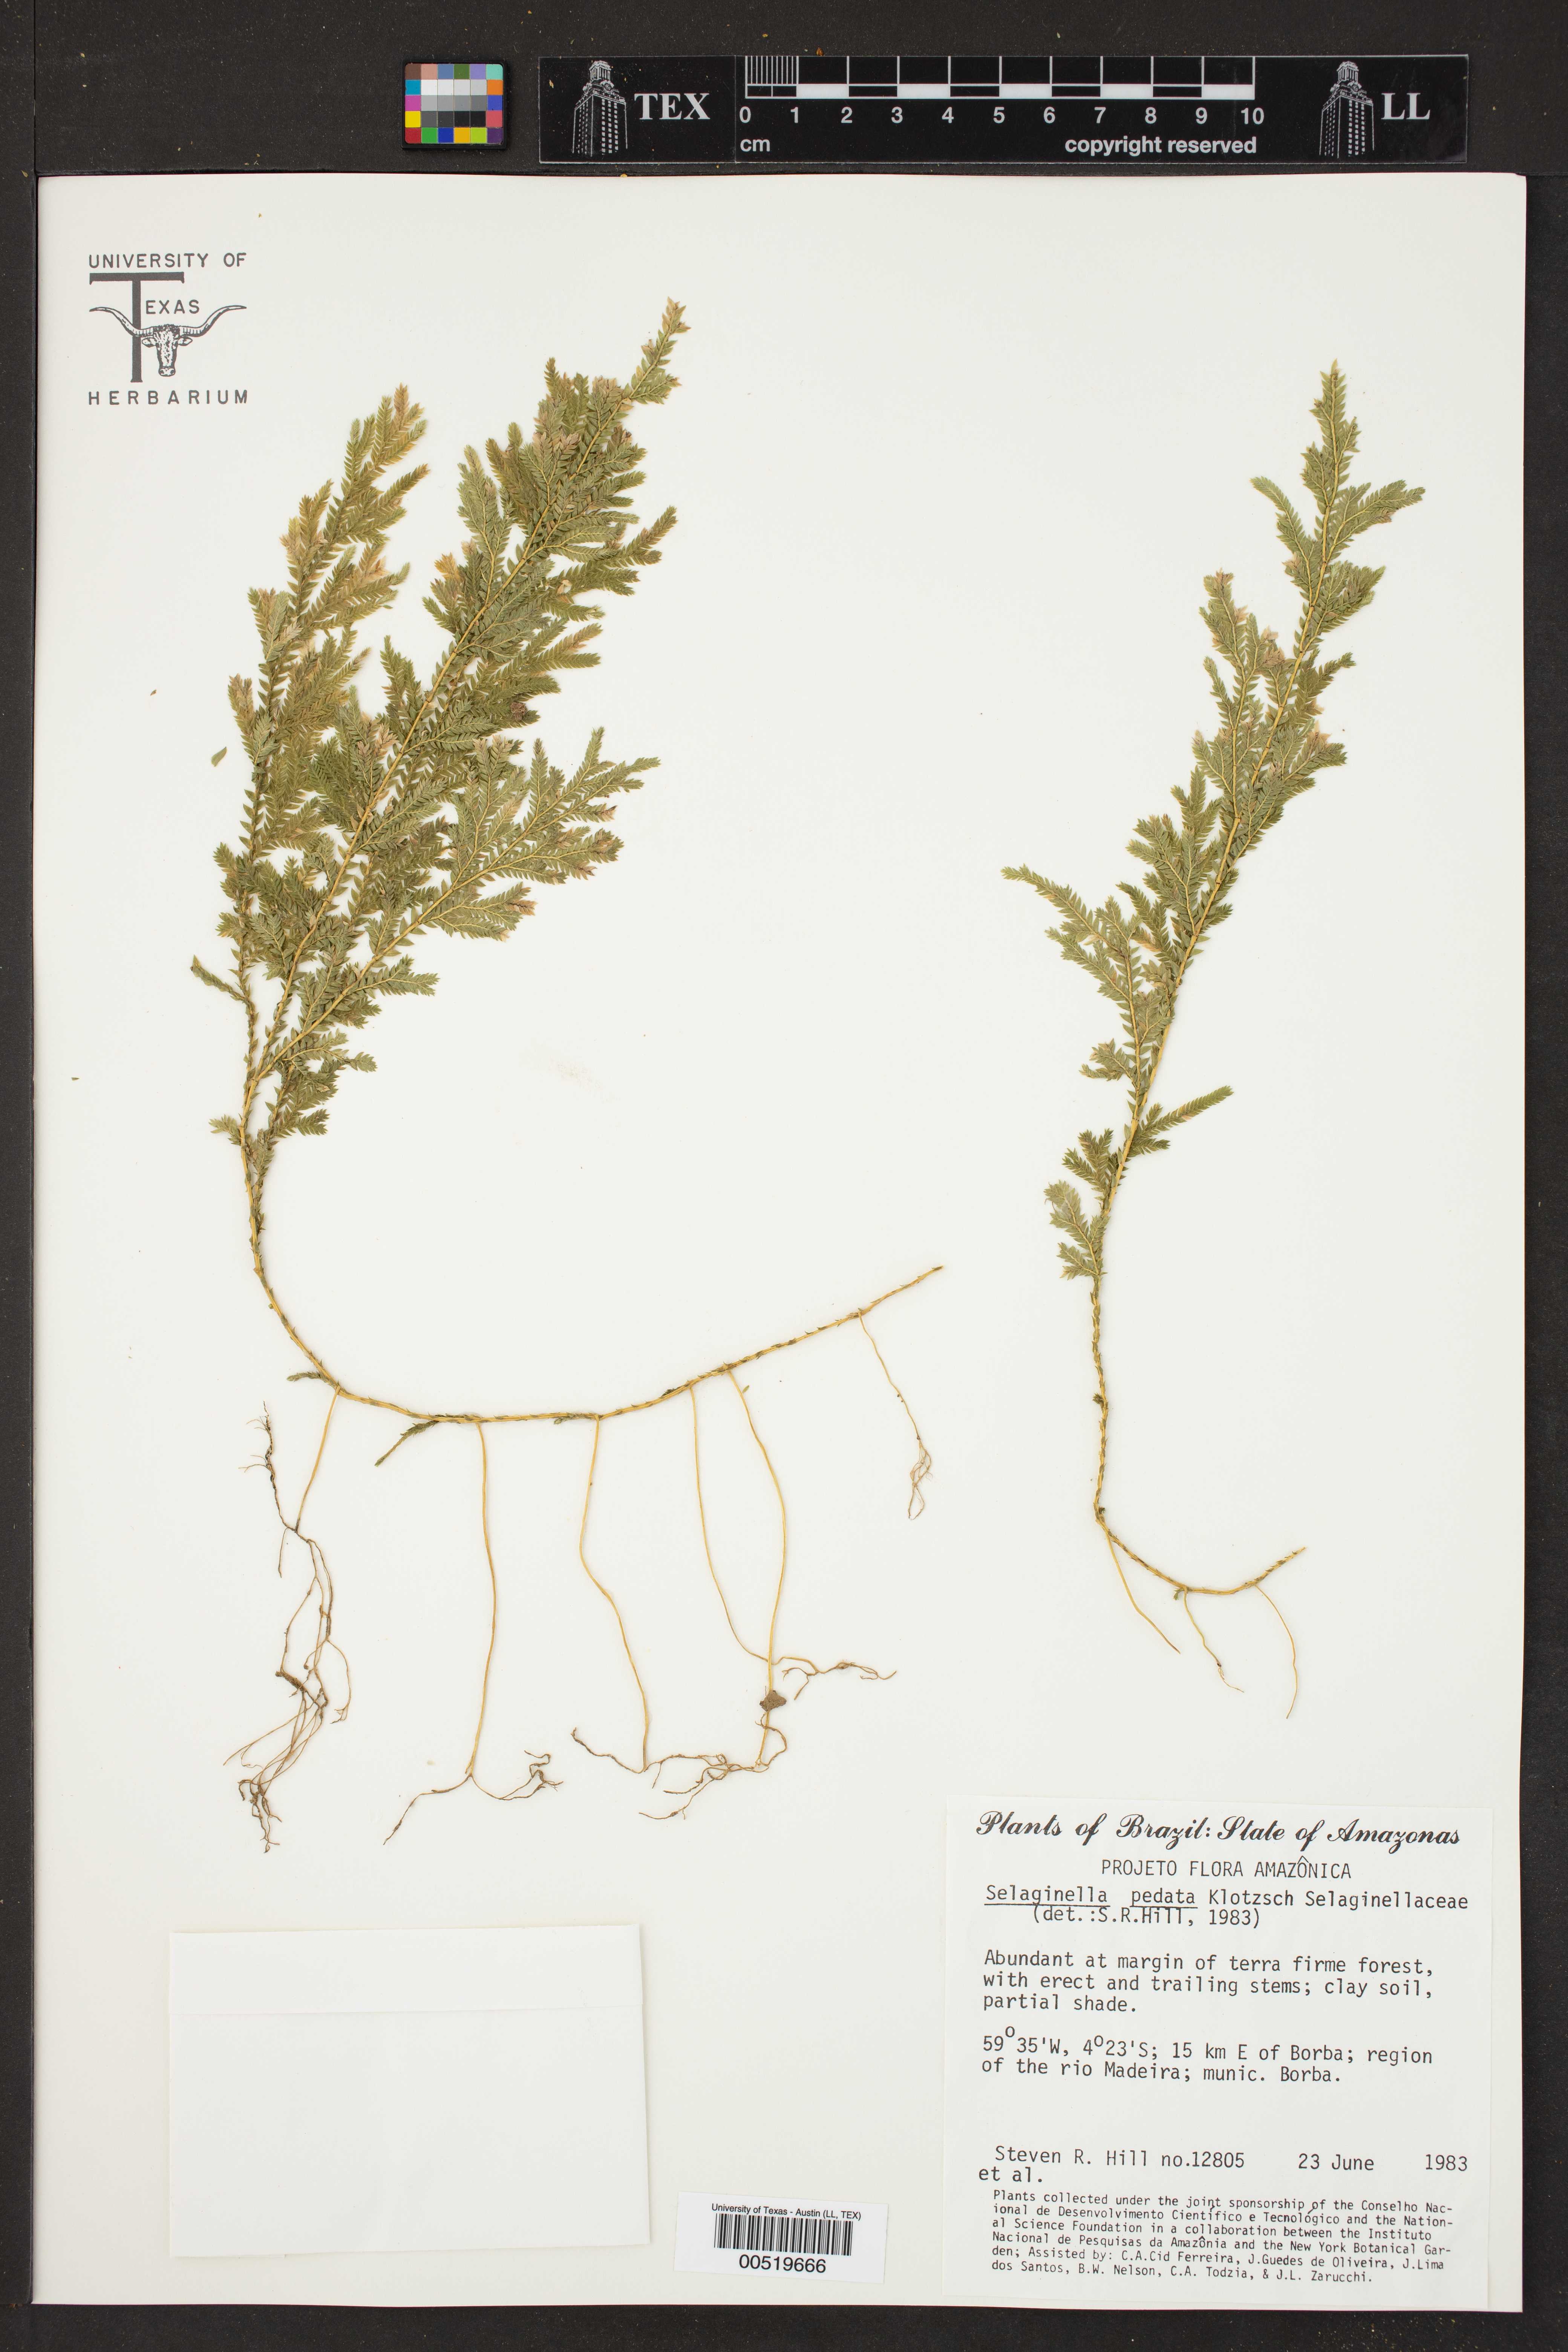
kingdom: Plantae
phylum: Tracheophyta
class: Lycopodiopsida
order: Selaginellales
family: Selaginellaceae
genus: Selaginella
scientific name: Selaginella pedata
